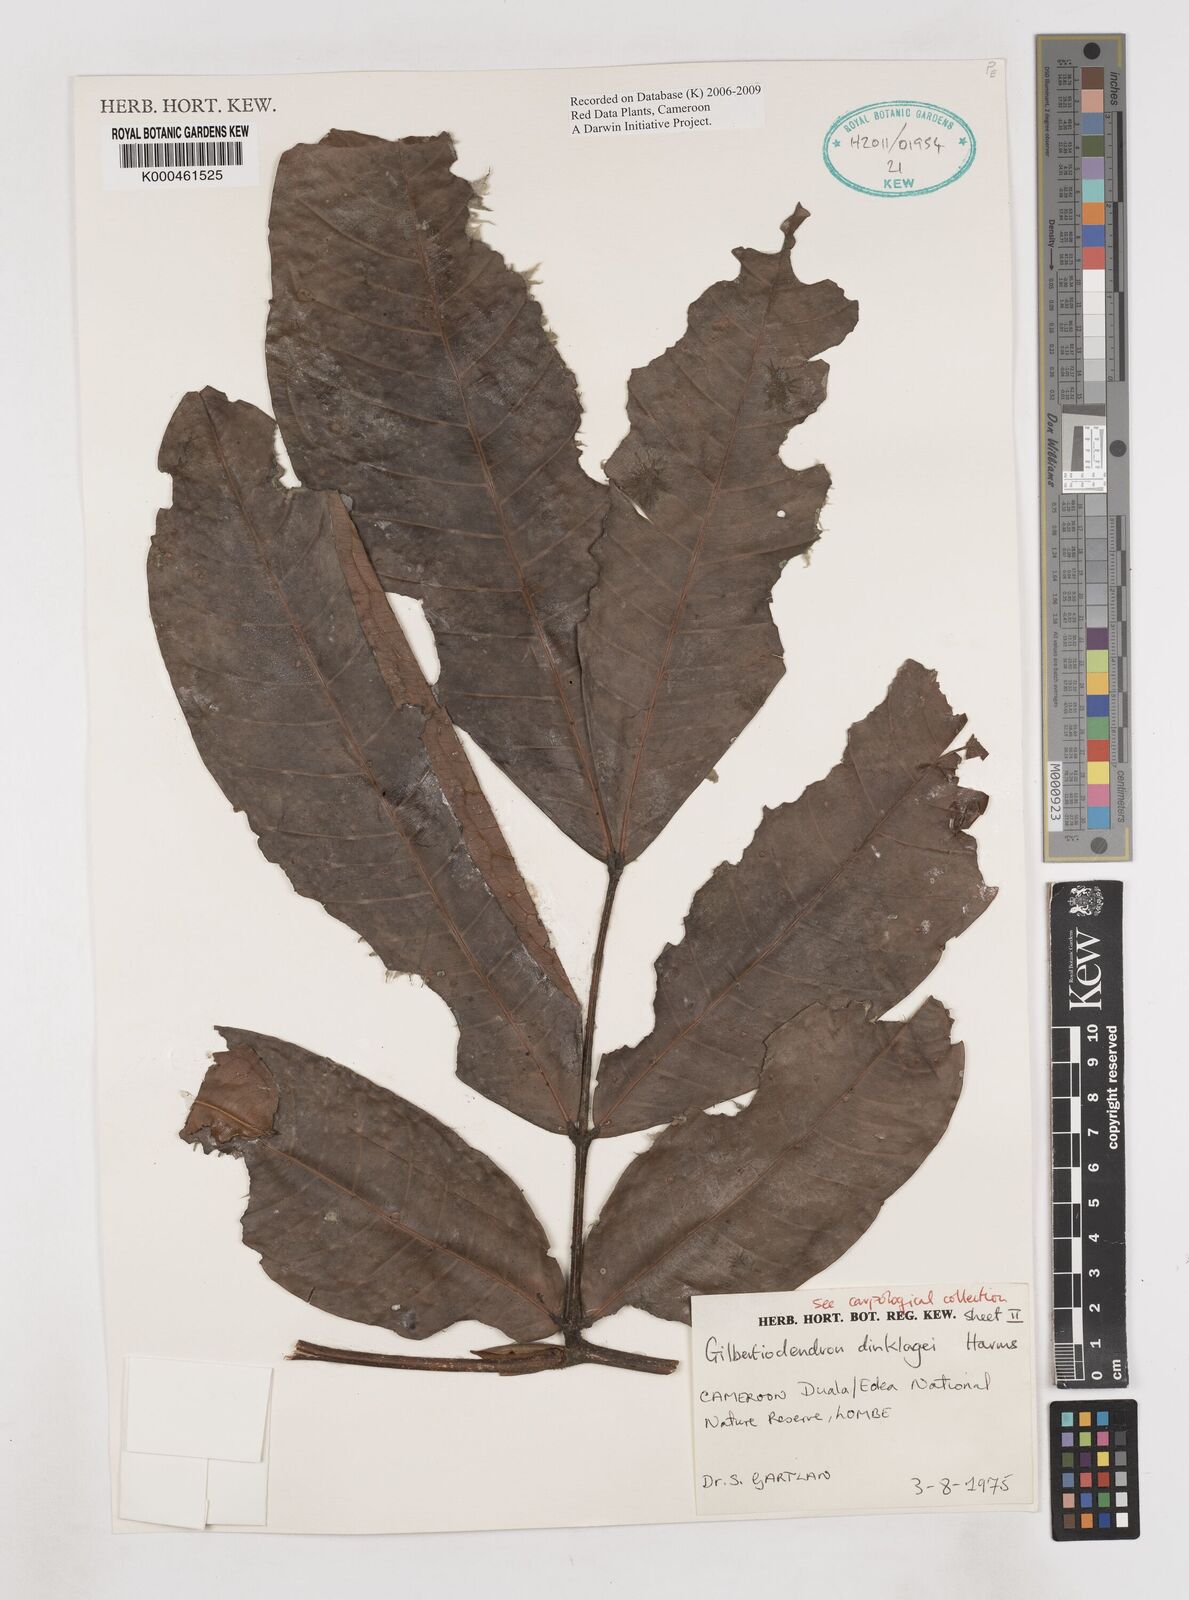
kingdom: Plantae
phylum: Tracheophyta
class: Magnoliopsida
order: Fabales
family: Fabaceae
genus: Gilbertiodendron
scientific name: Gilbertiodendron demonstrans
